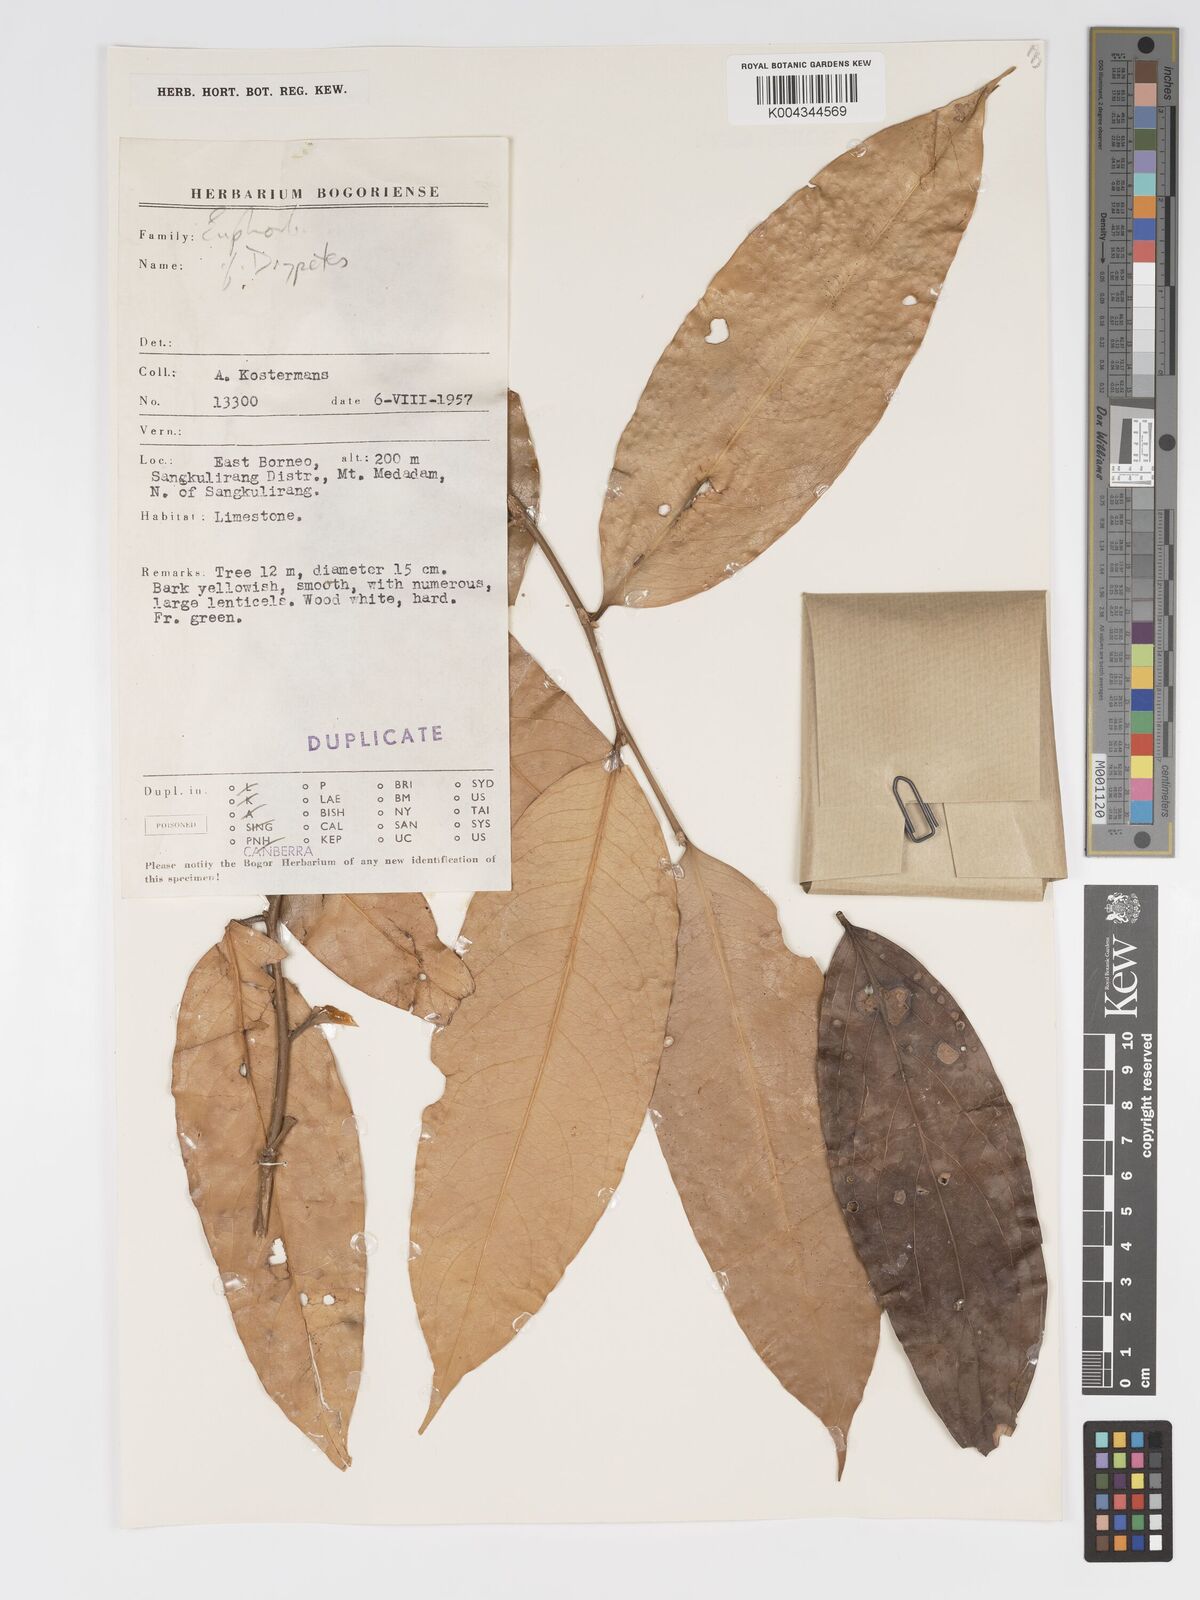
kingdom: Plantae
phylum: Tracheophyta
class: Magnoliopsida
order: Malpighiales
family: Putranjivaceae
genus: Drypetes
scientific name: Drypetes neglecta
